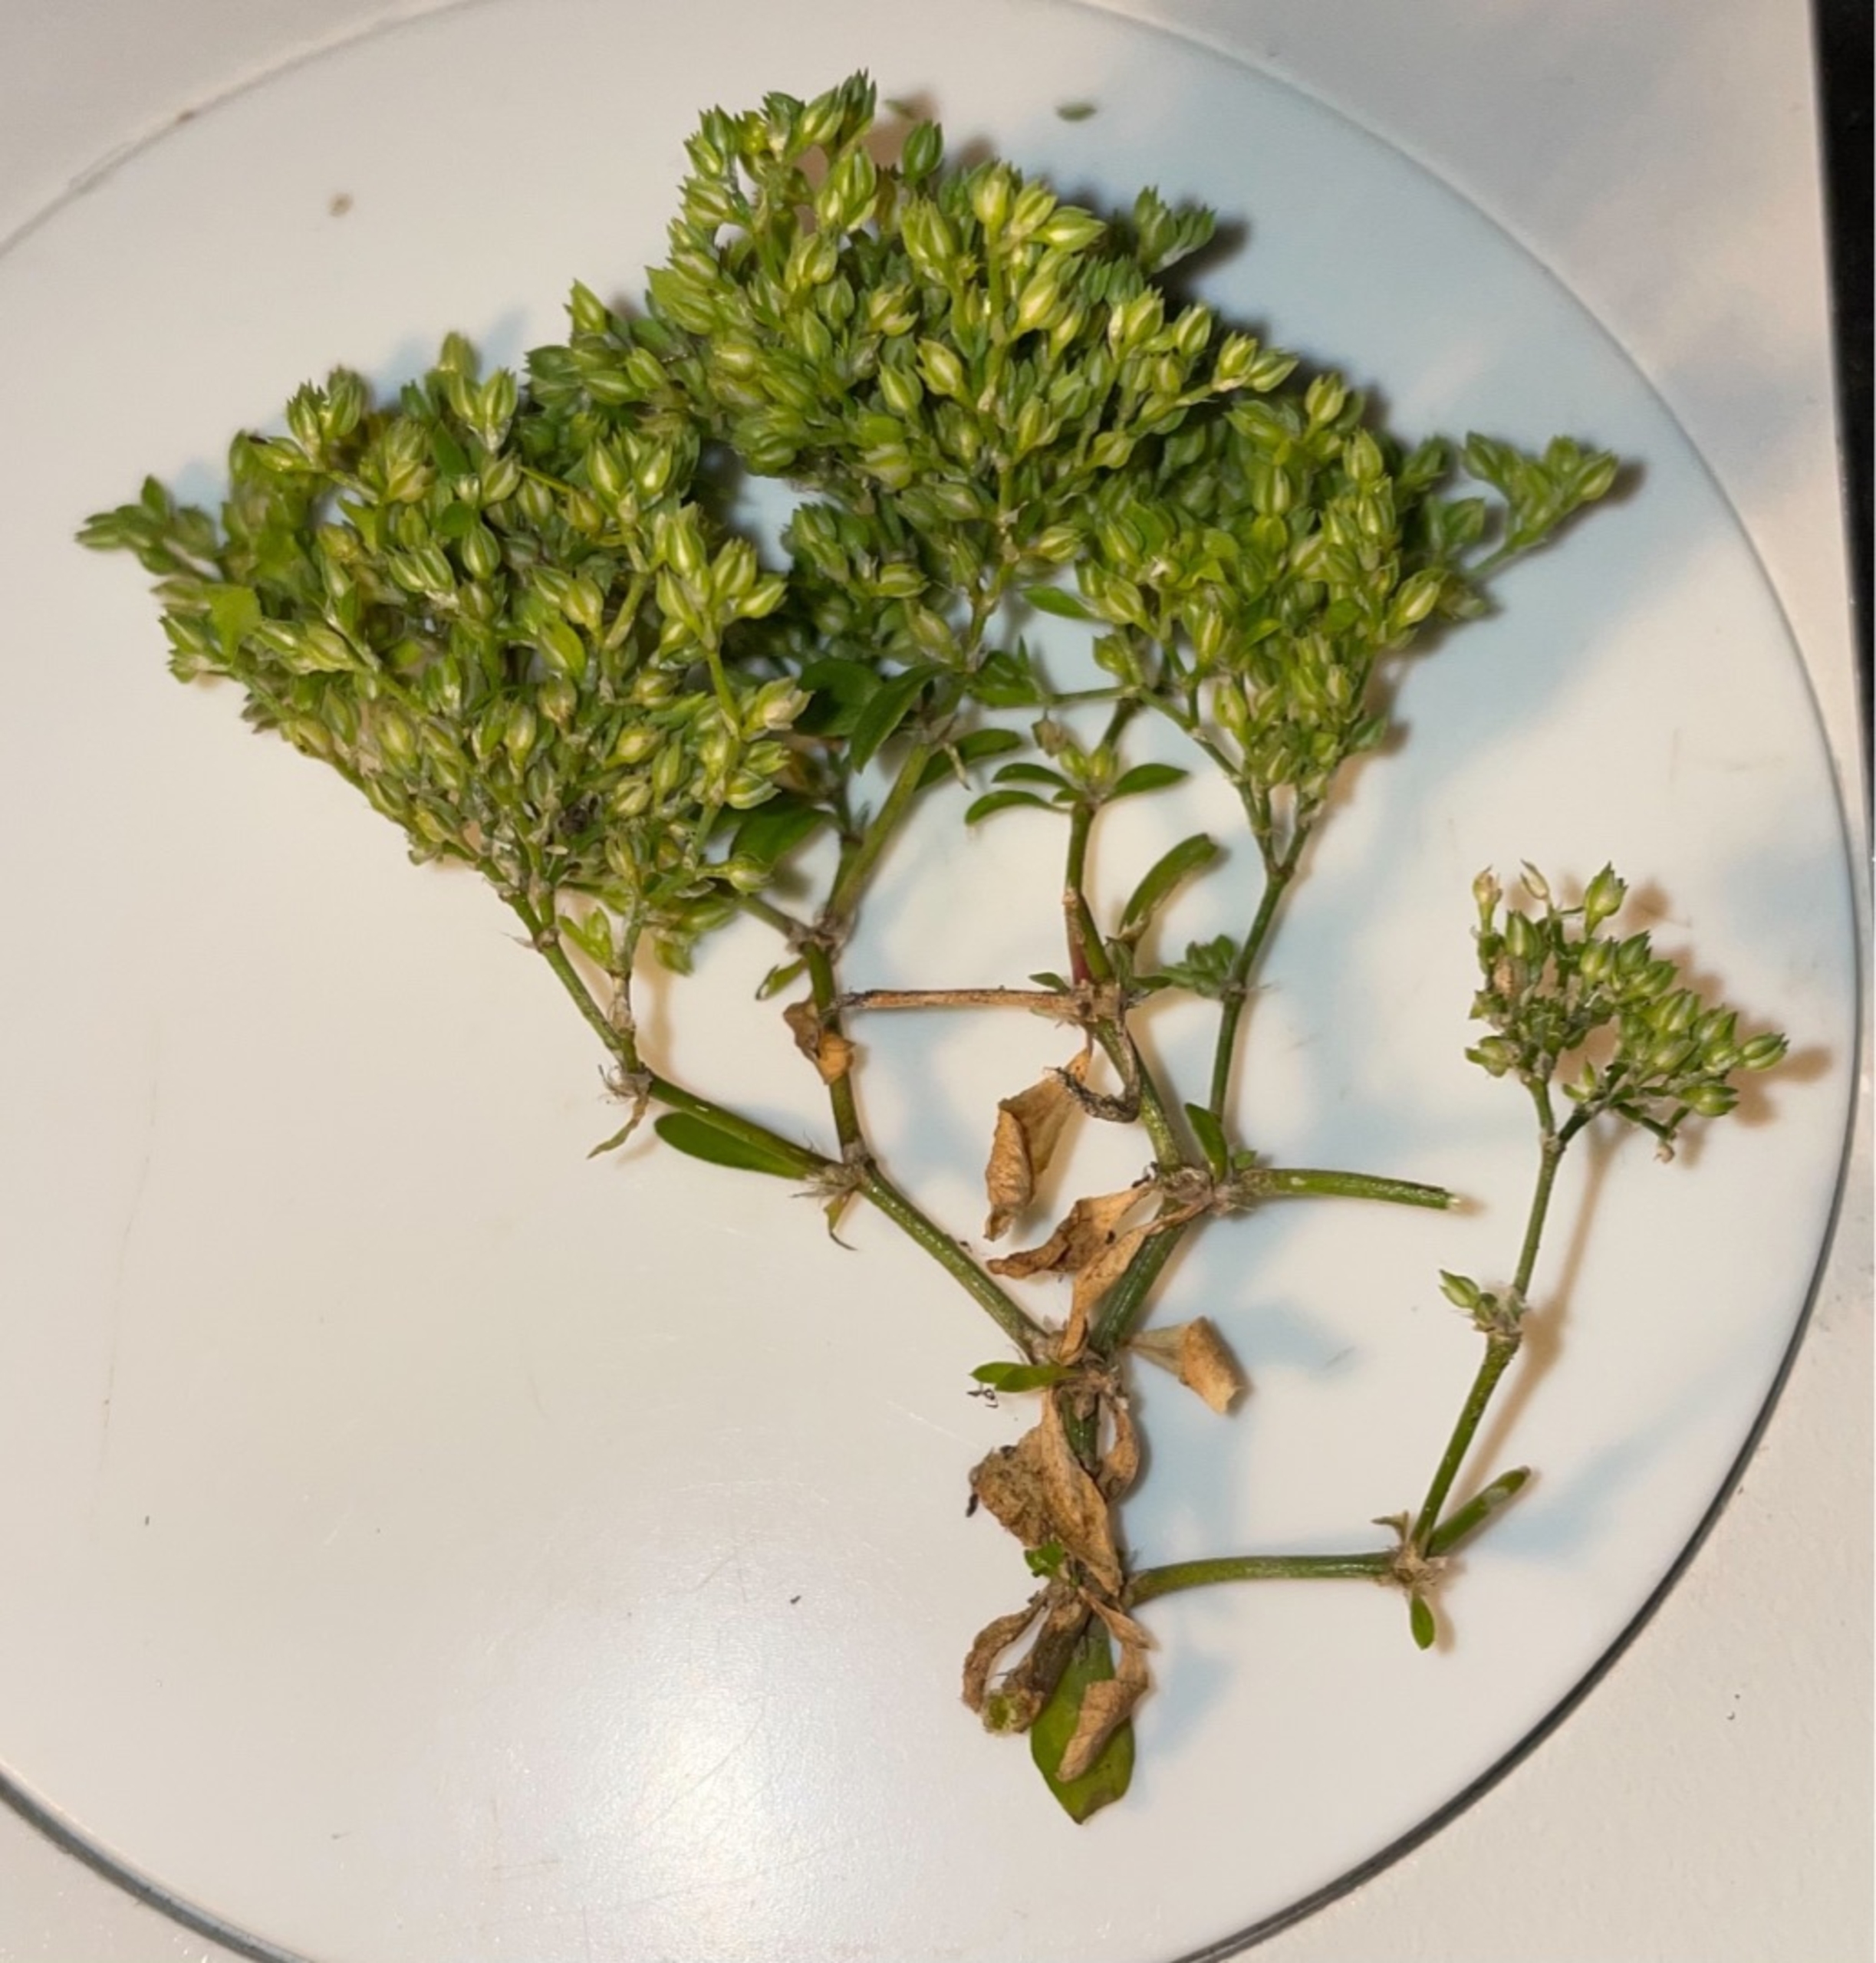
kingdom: Plantae
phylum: Tracheophyta
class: Magnoliopsida
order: Caryophyllales
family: Caryophyllaceae
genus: Polycarpon
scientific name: Polycarpon tetraphyllum
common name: Firbladet mangefrø
